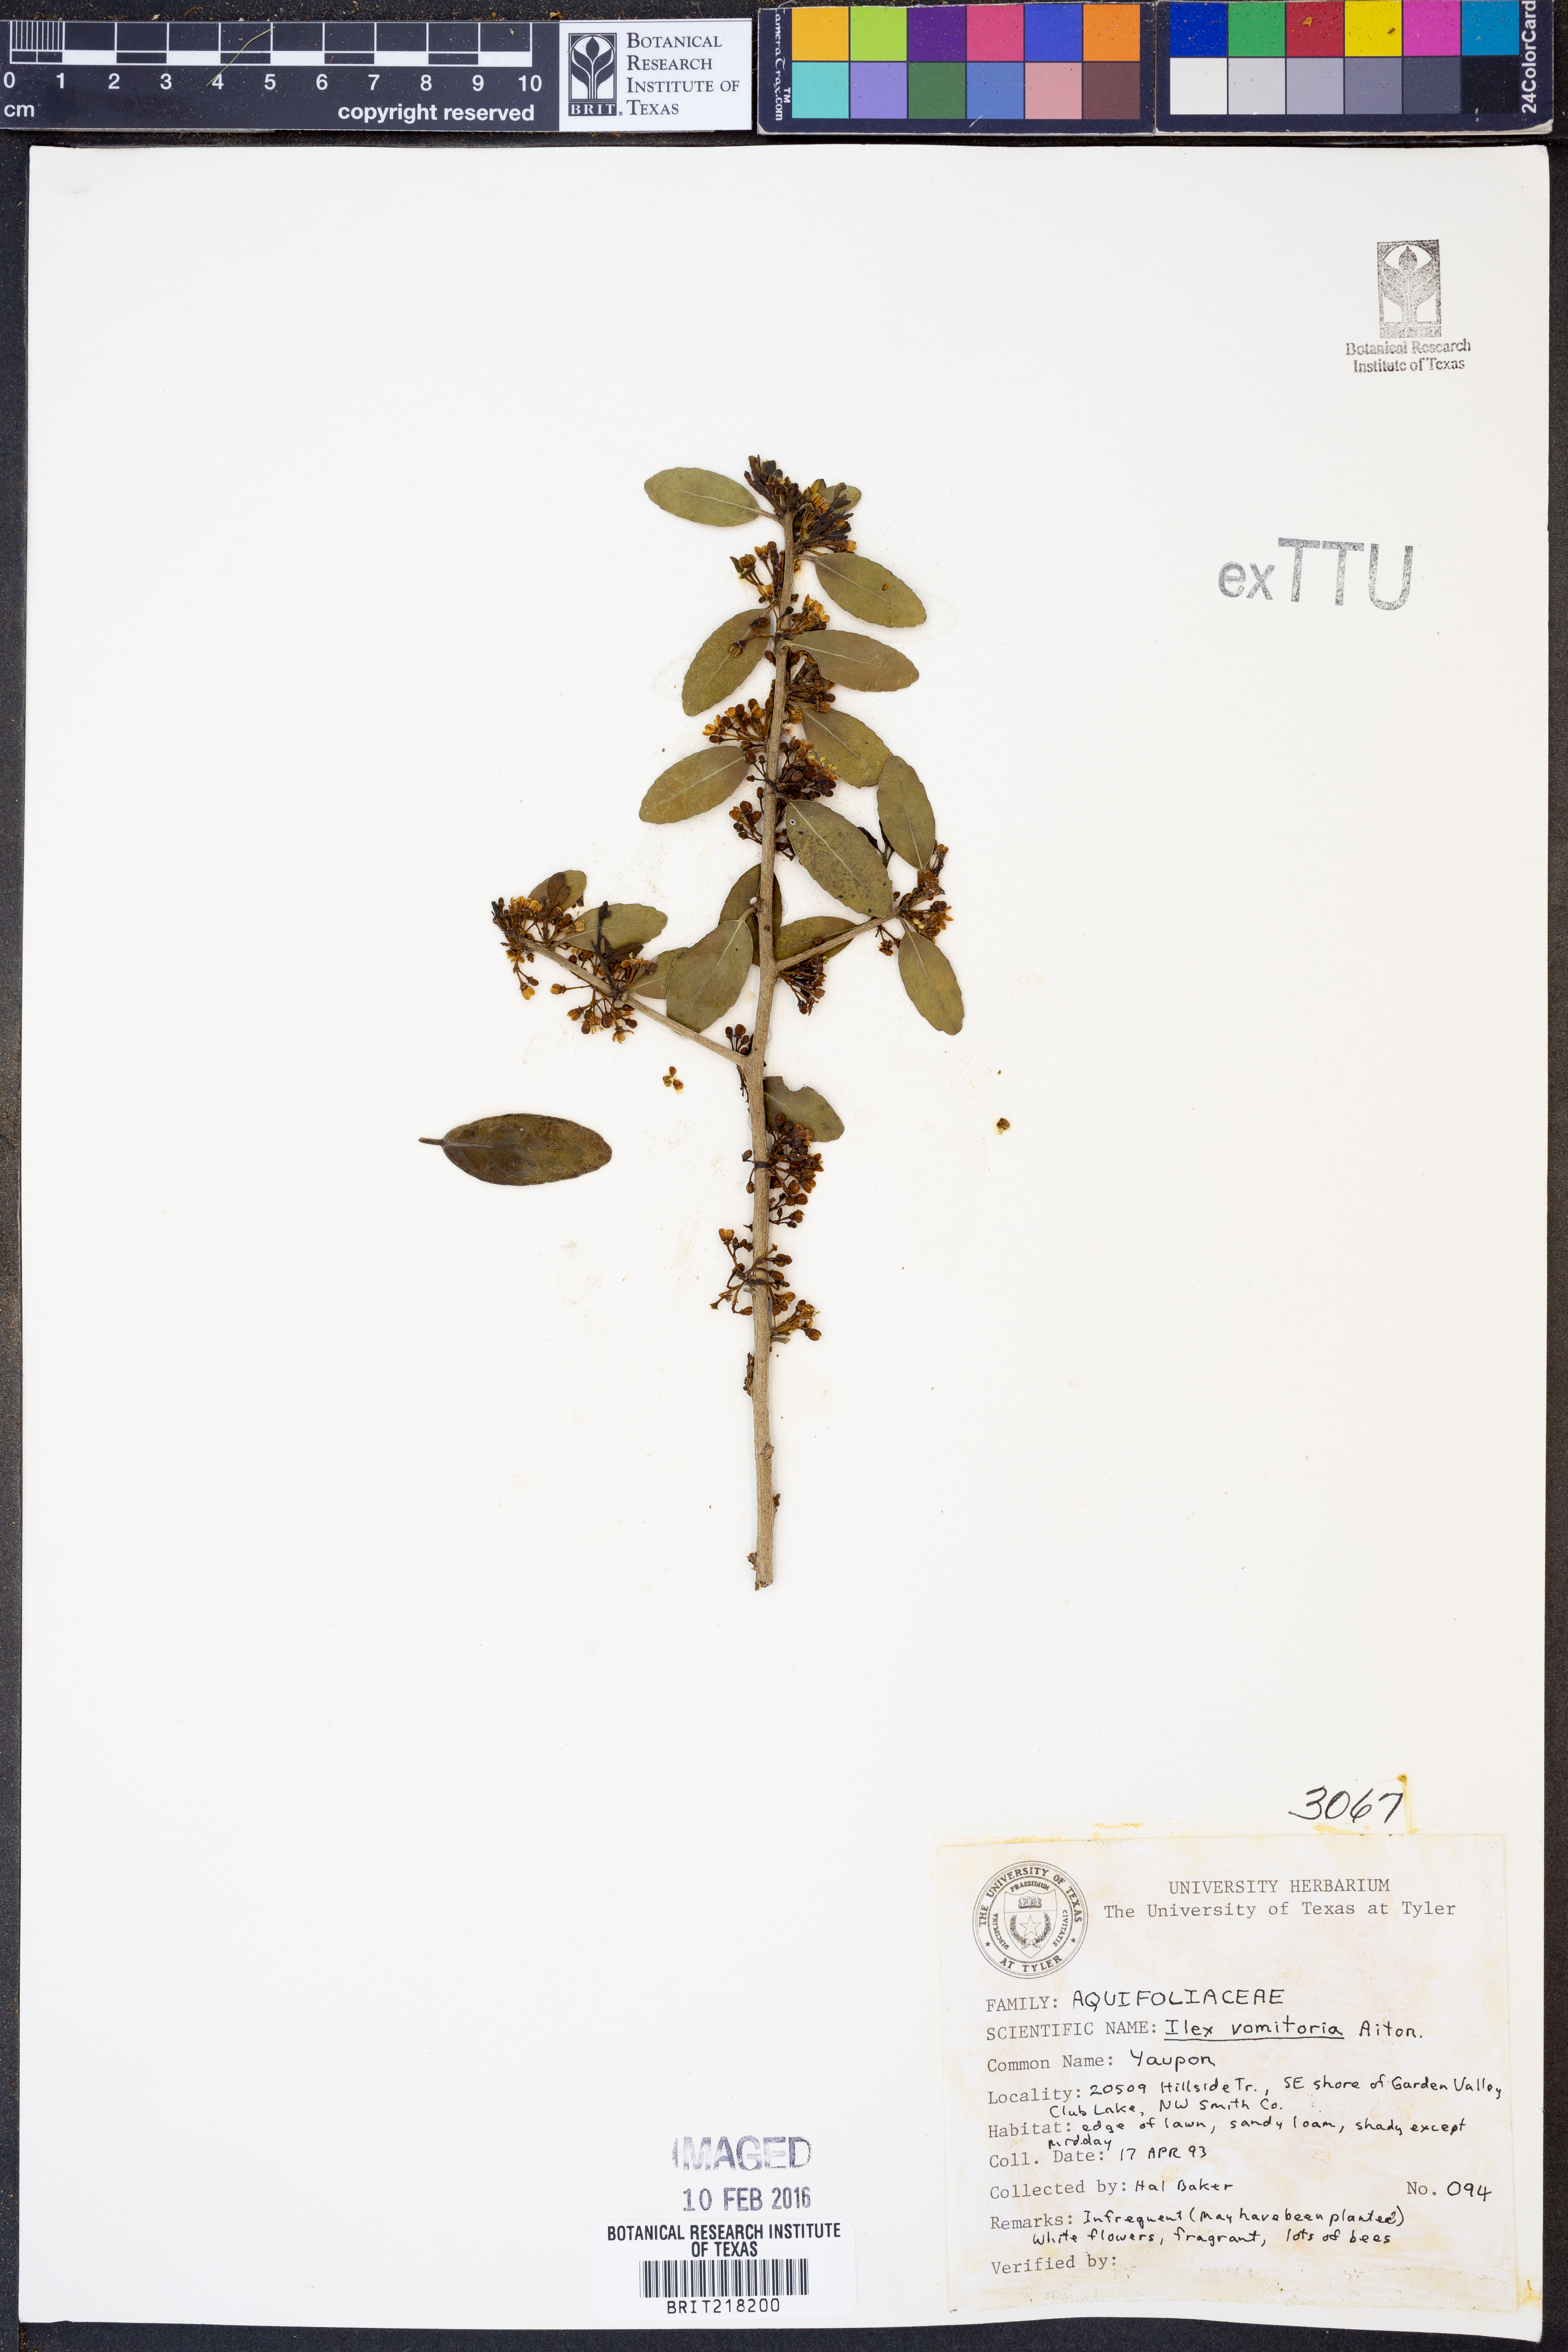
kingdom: Plantae
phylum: Tracheophyta
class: Magnoliopsida
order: Aquifoliales
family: Aquifoliaceae
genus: Ilex
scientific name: Ilex vomitoria
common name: Yaupon holly
